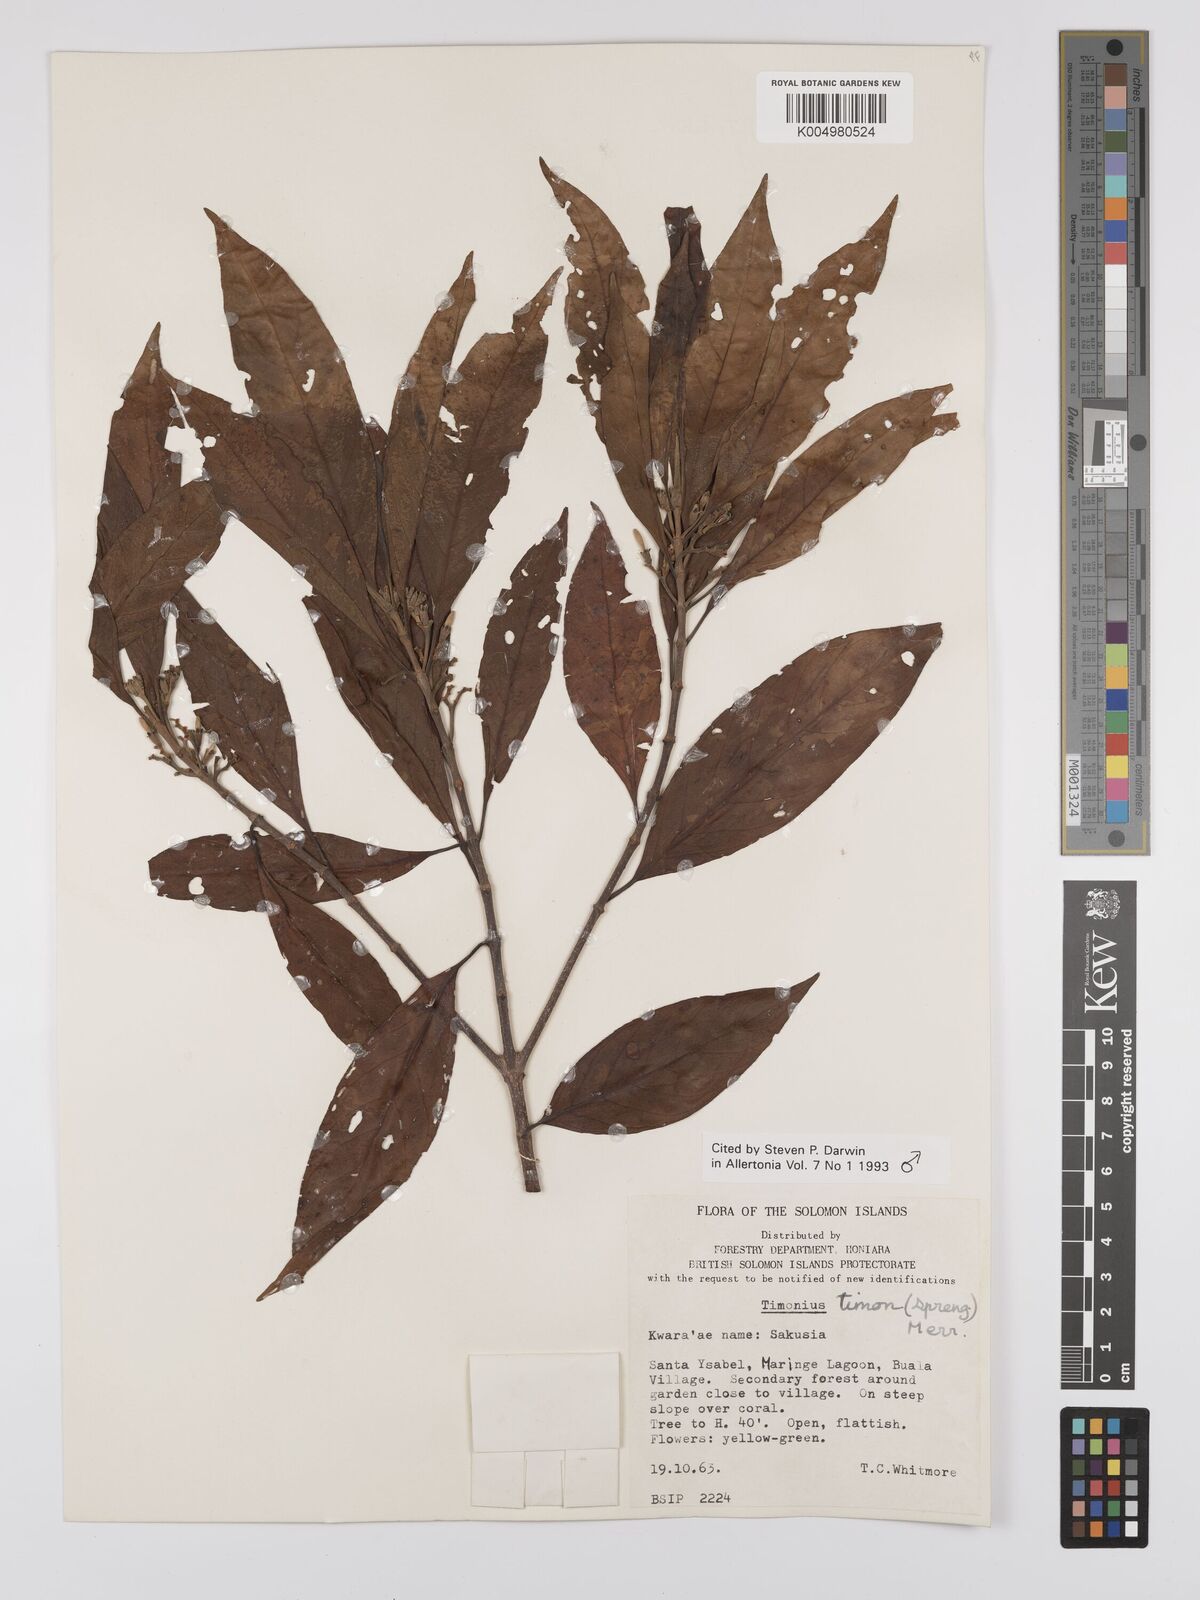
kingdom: Plantae
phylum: Tracheophyta
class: Magnoliopsida
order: Gentianales
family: Rubiaceae
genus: Timonius
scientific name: Timonius timon
